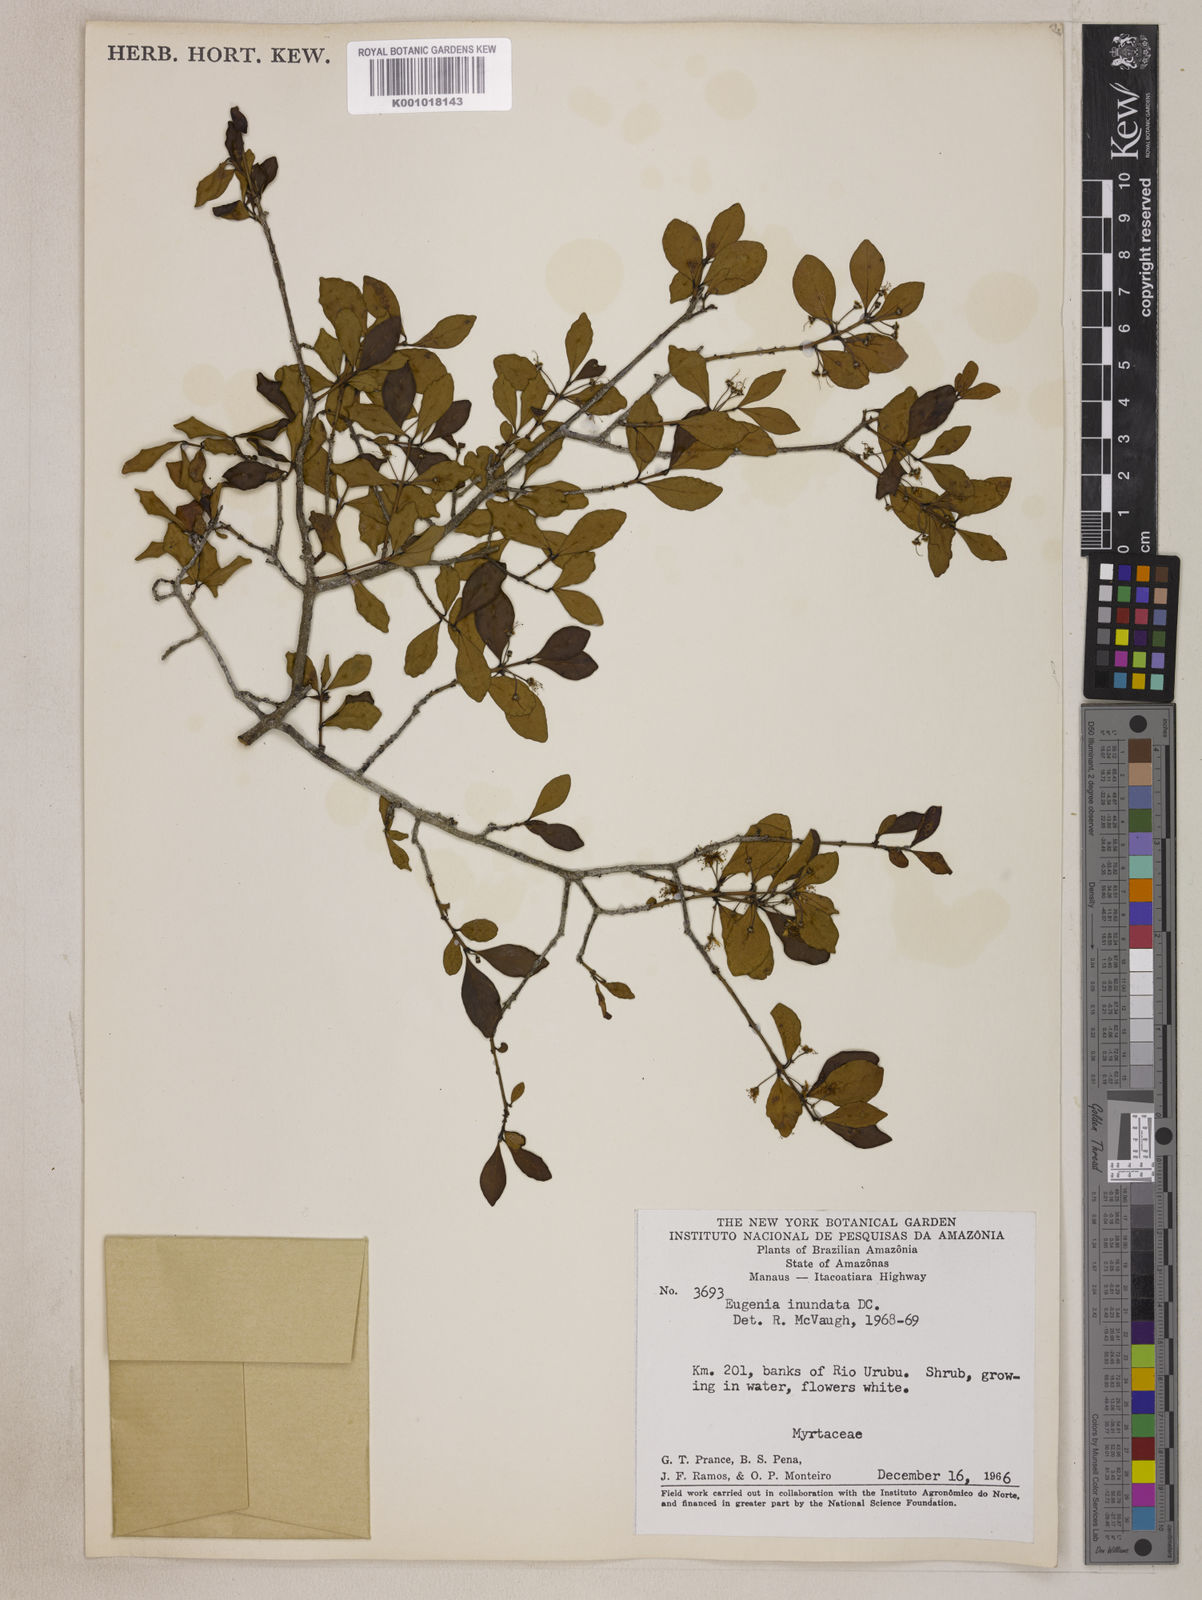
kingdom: Plantae
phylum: Tracheophyta
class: Magnoliopsida
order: Myrtales
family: Myrtaceae
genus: Eugenia
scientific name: Eugenia inundata
